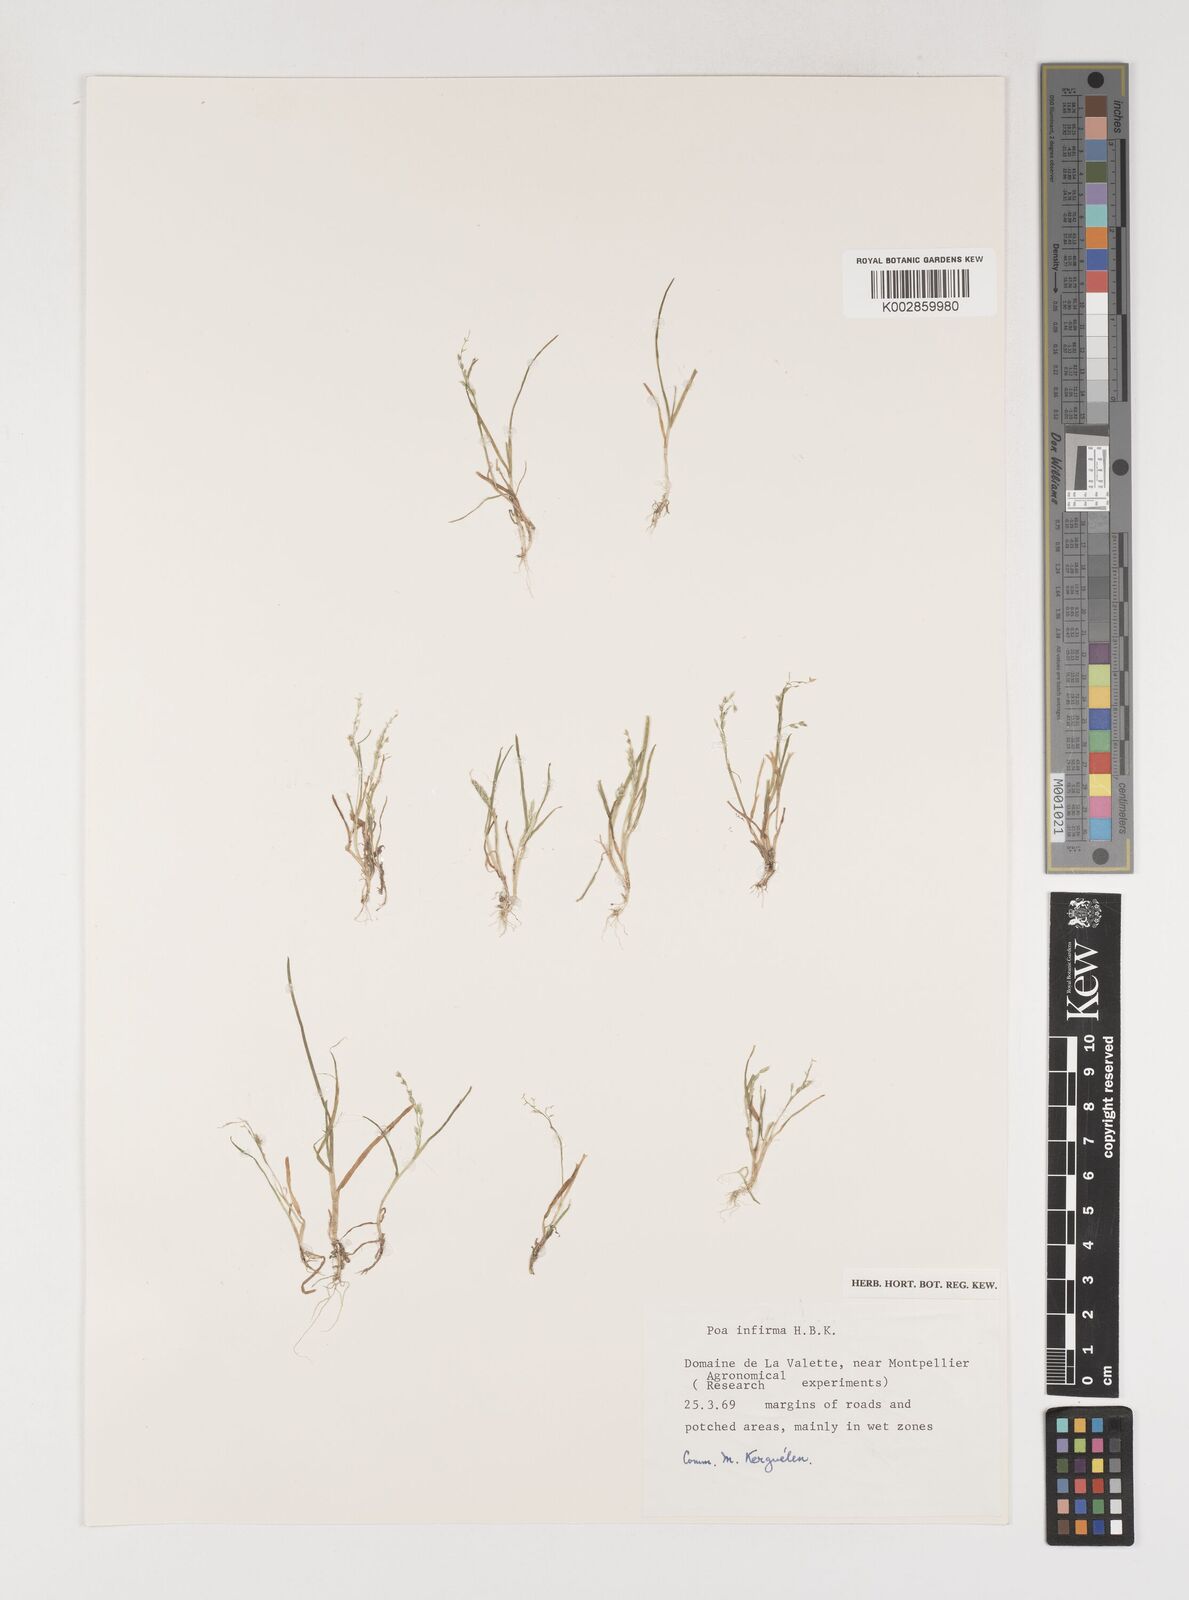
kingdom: Plantae
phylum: Tracheophyta
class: Liliopsida
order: Poales
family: Poaceae
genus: Poa
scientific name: Poa infirma
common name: Weak bluegrass
